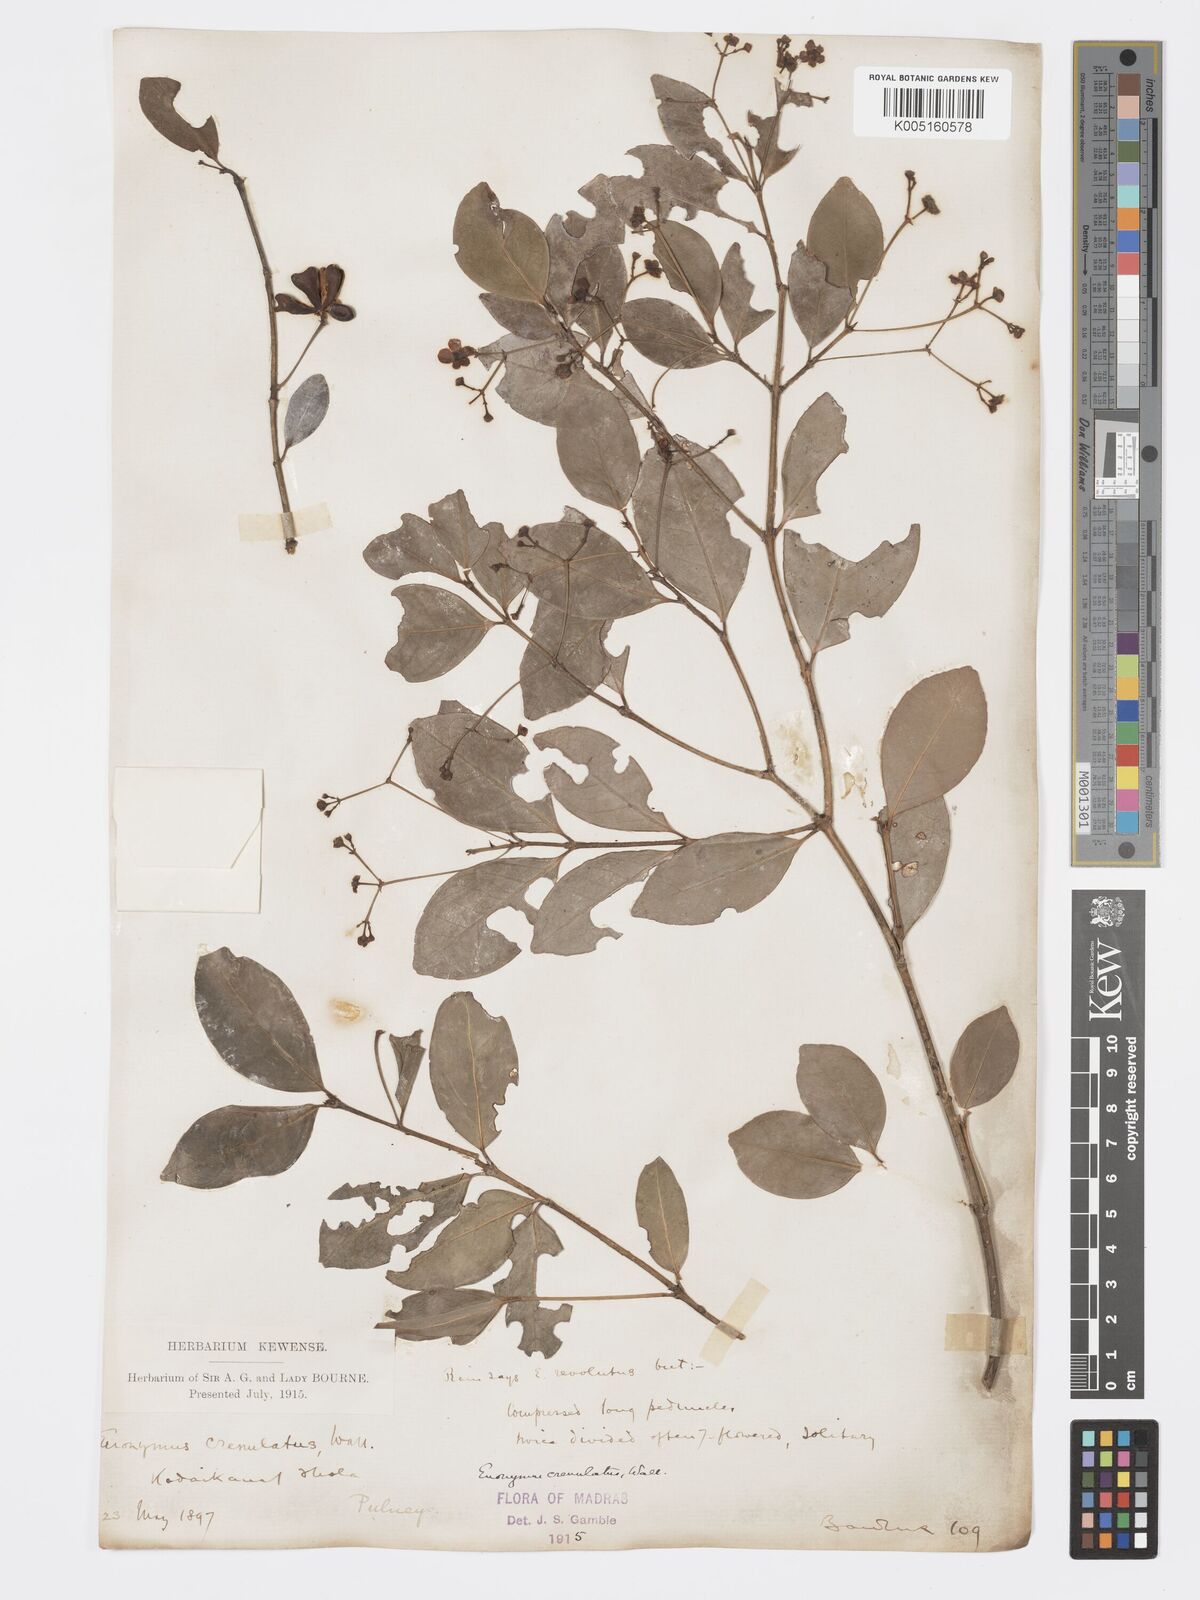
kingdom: Plantae
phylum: Tracheophyta
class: Magnoliopsida
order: Celastrales
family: Celastraceae
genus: Euonymus
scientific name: Euonymus crenulatus
